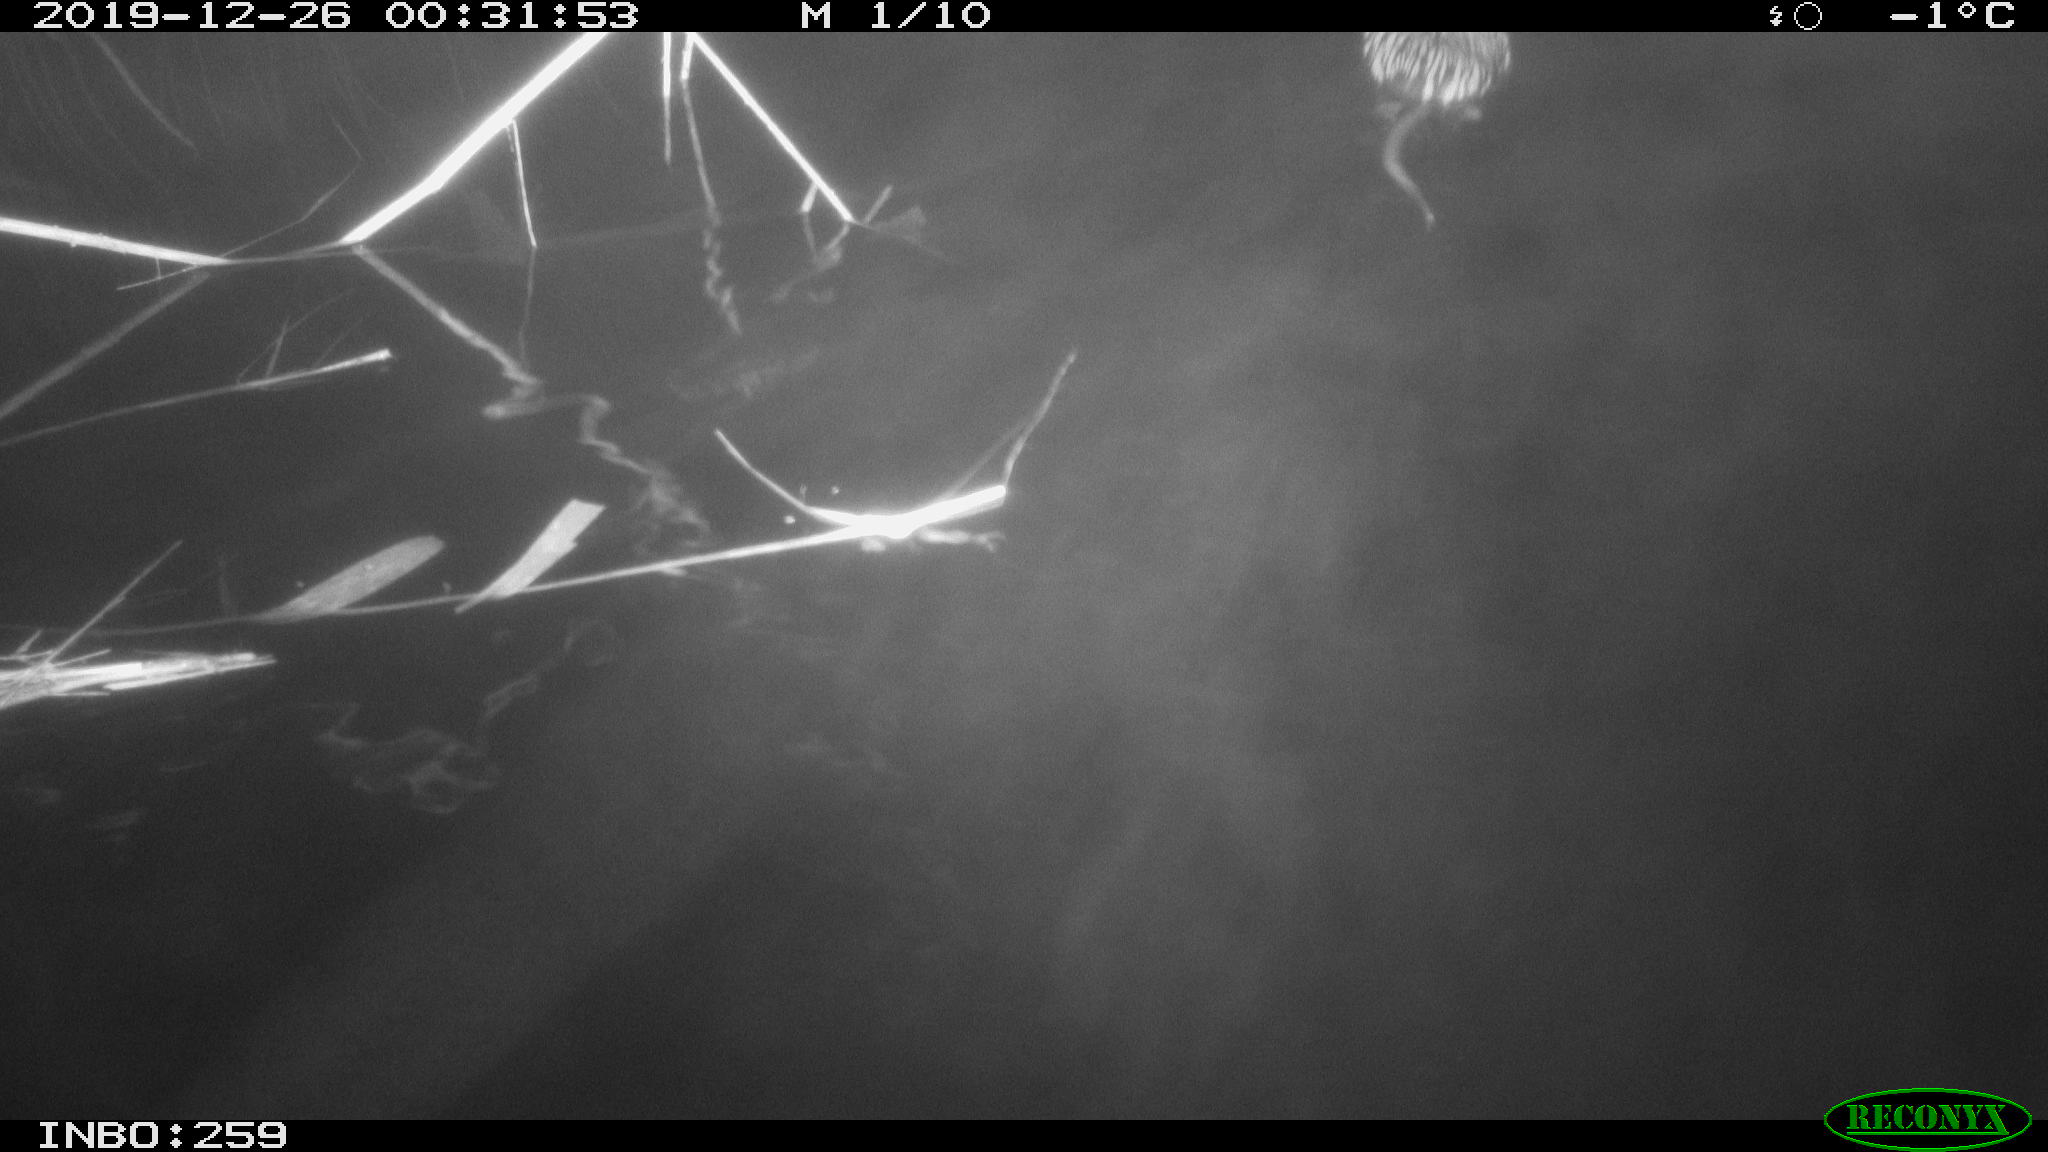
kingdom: Animalia
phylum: Chordata
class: Mammalia
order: Rodentia
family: Cricetidae
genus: Ondatra
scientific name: Ondatra zibethicus
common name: Muskrat
